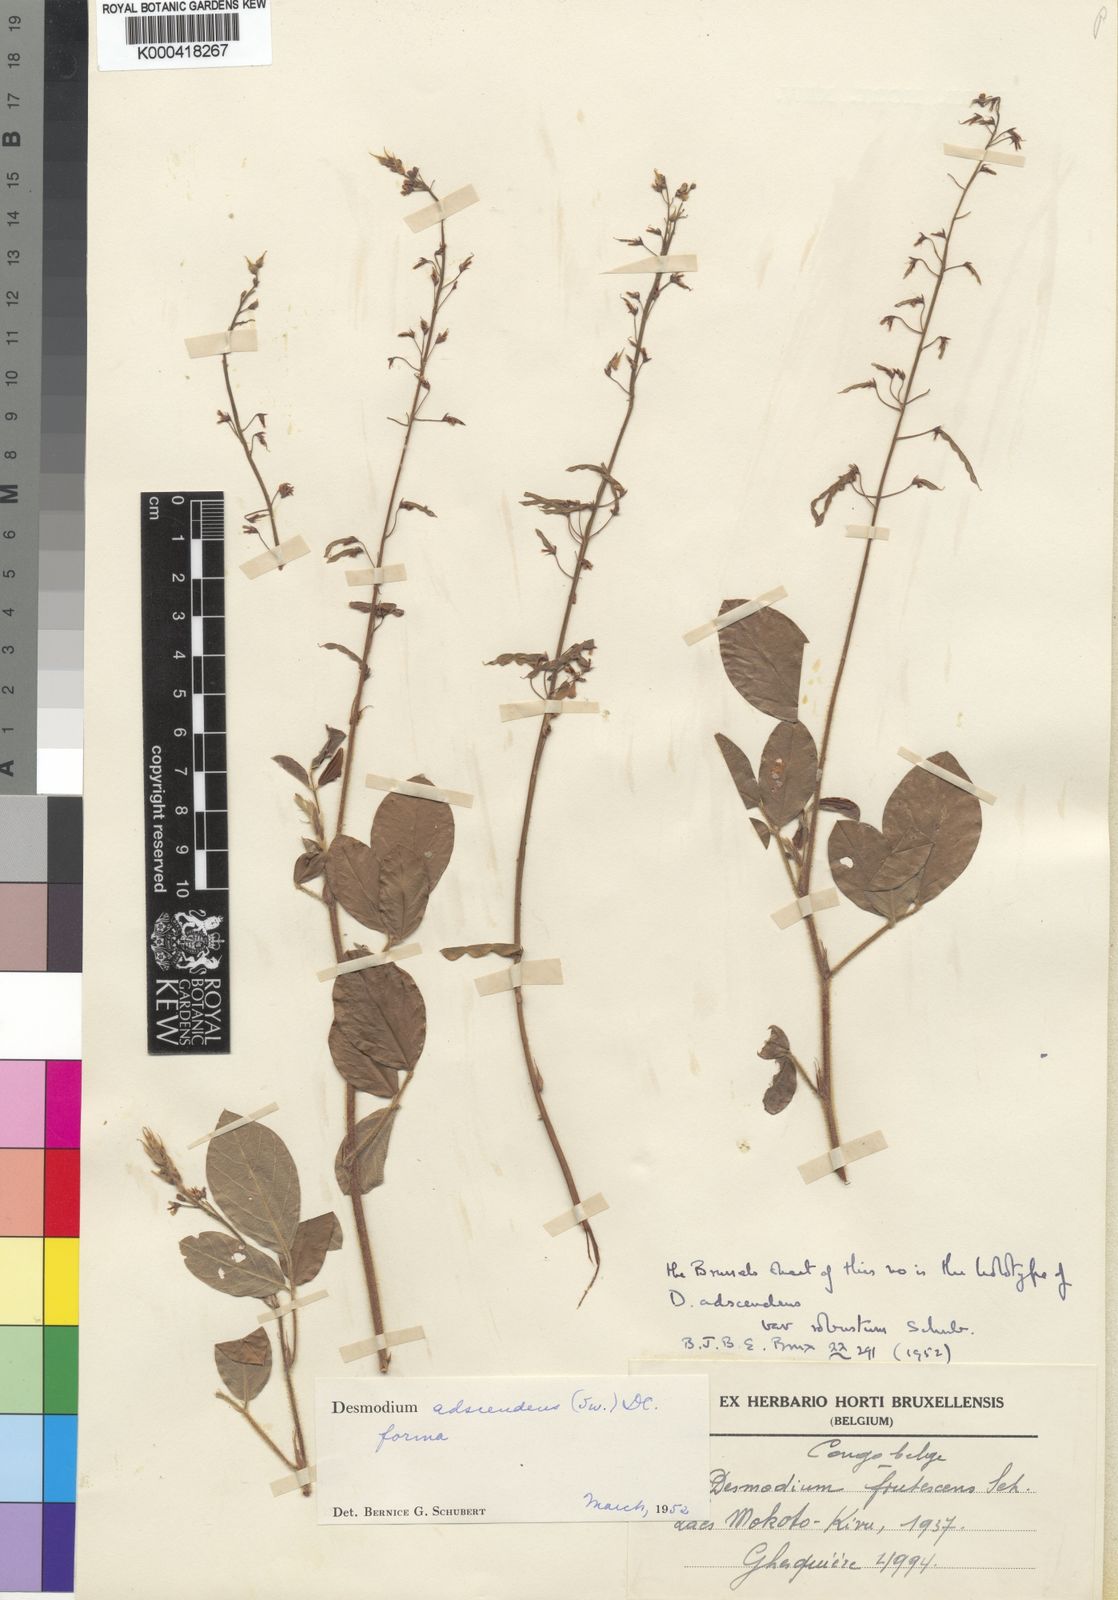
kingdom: Plantae
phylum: Tracheophyta
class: Magnoliopsida
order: Fabales
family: Fabaceae
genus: Grona
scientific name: Grona adscendens
